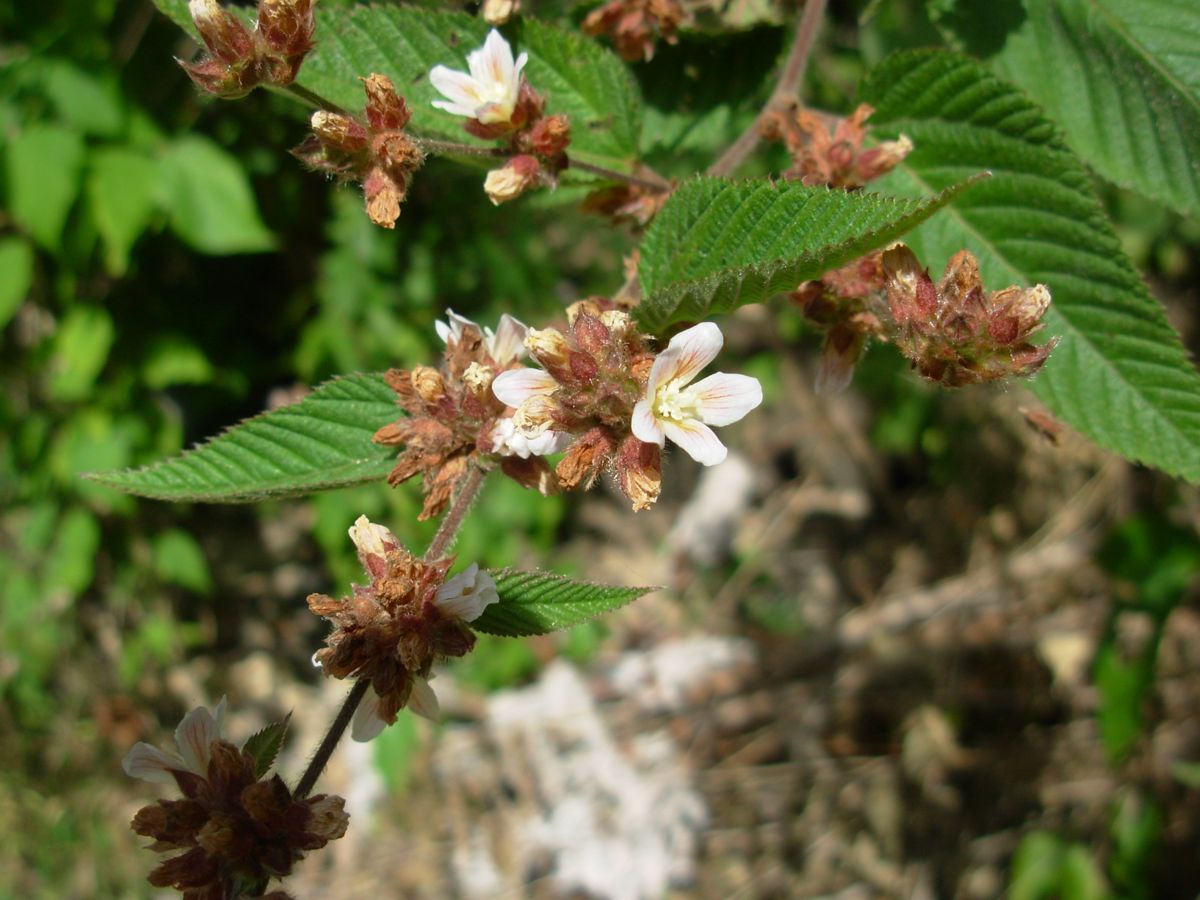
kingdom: Plantae
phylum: Tracheophyta
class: Magnoliopsida
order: Malvales
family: Malvaceae
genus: Melochia
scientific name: Melochia lupulina
